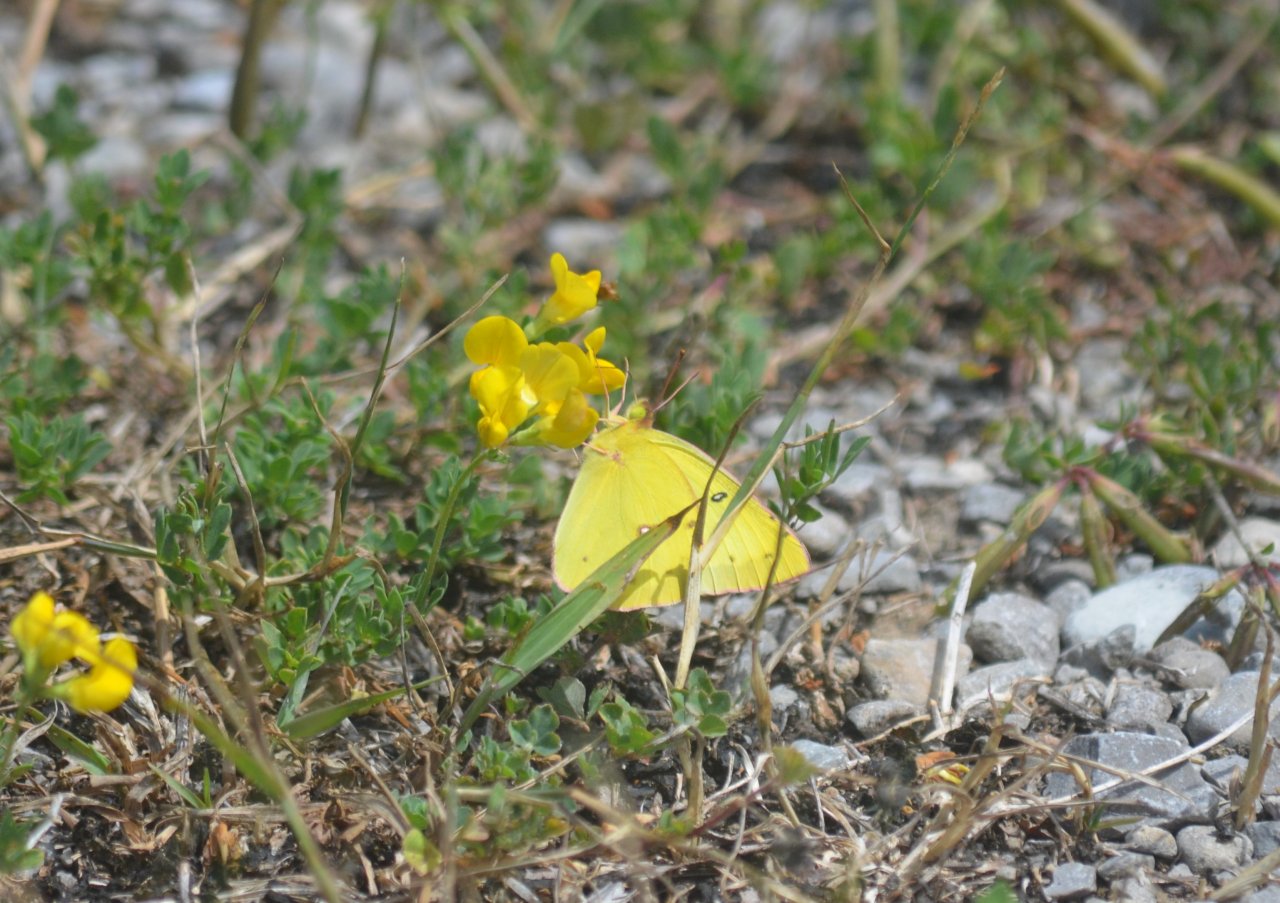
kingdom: Animalia
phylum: Arthropoda
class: Insecta
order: Lepidoptera
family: Pieridae
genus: Colias
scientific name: Colias philodice
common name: Clouded Sulphur
